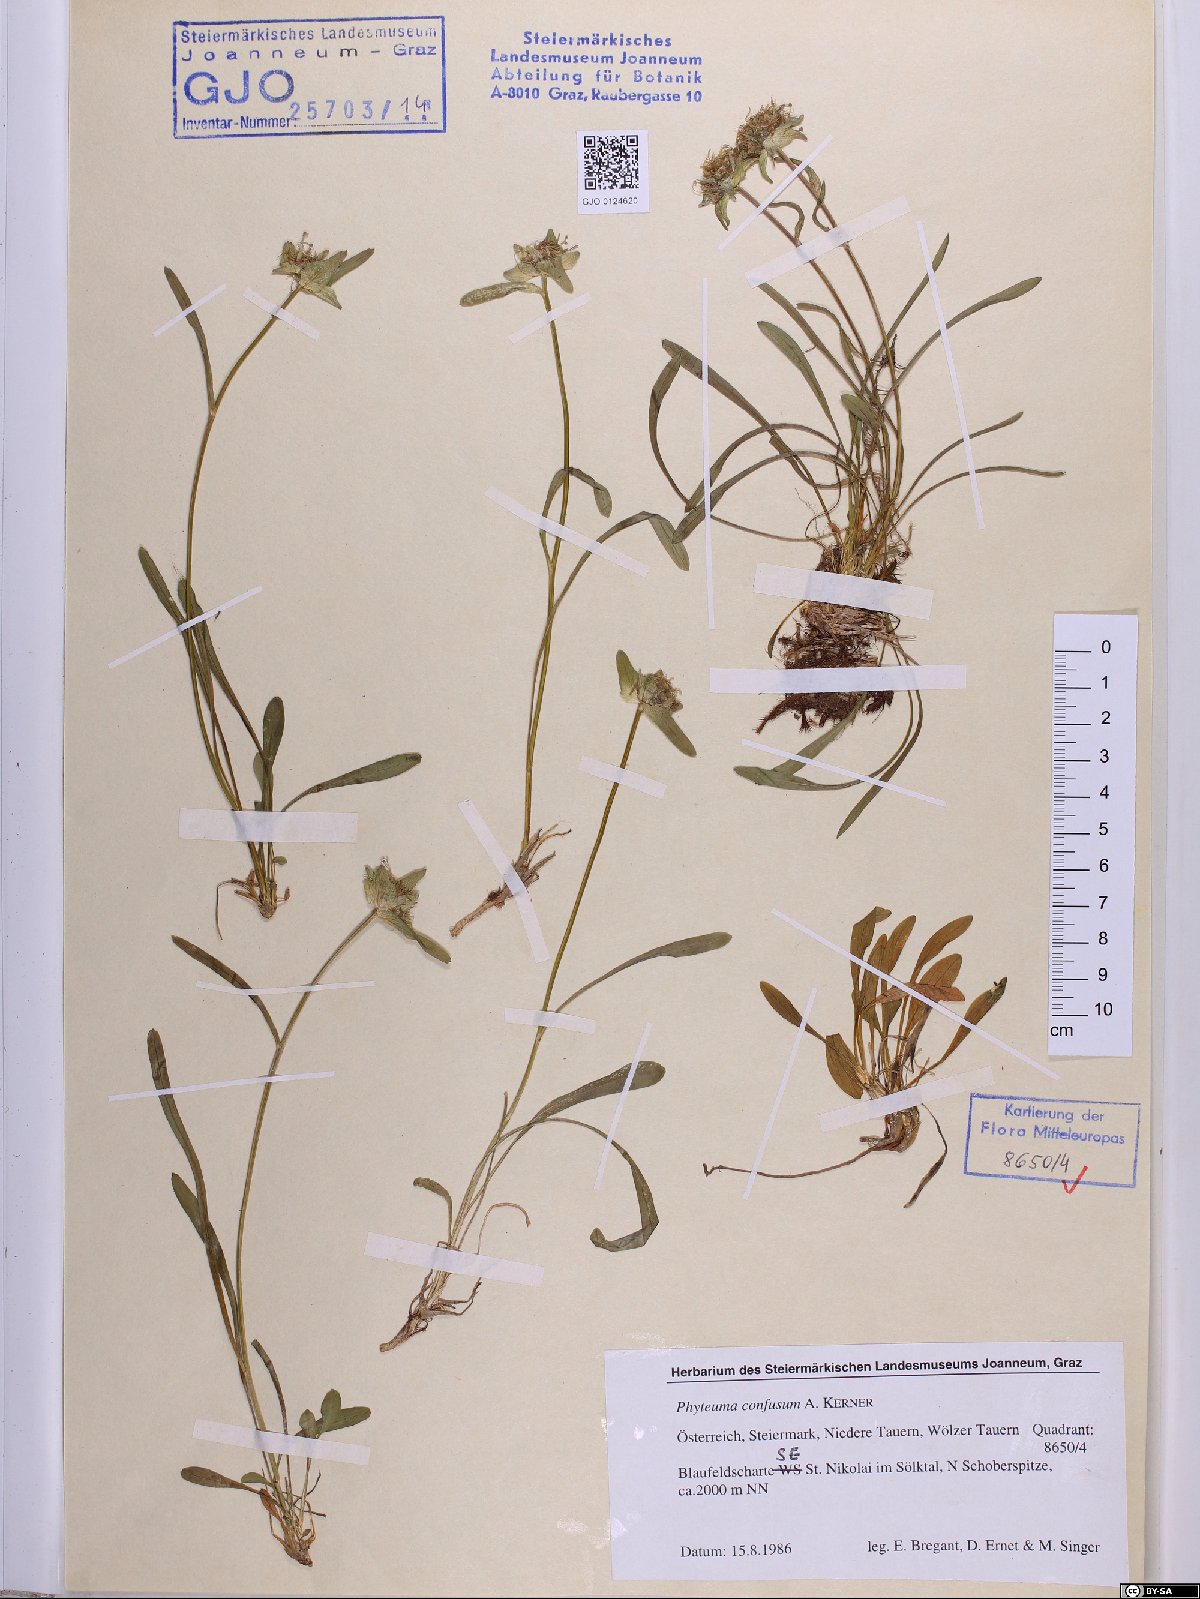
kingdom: Plantae
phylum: Tracheophyta
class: Magnoliopsida
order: Asterales
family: Campanulaceae
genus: Phyteuma
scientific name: Phyteuma confusum
